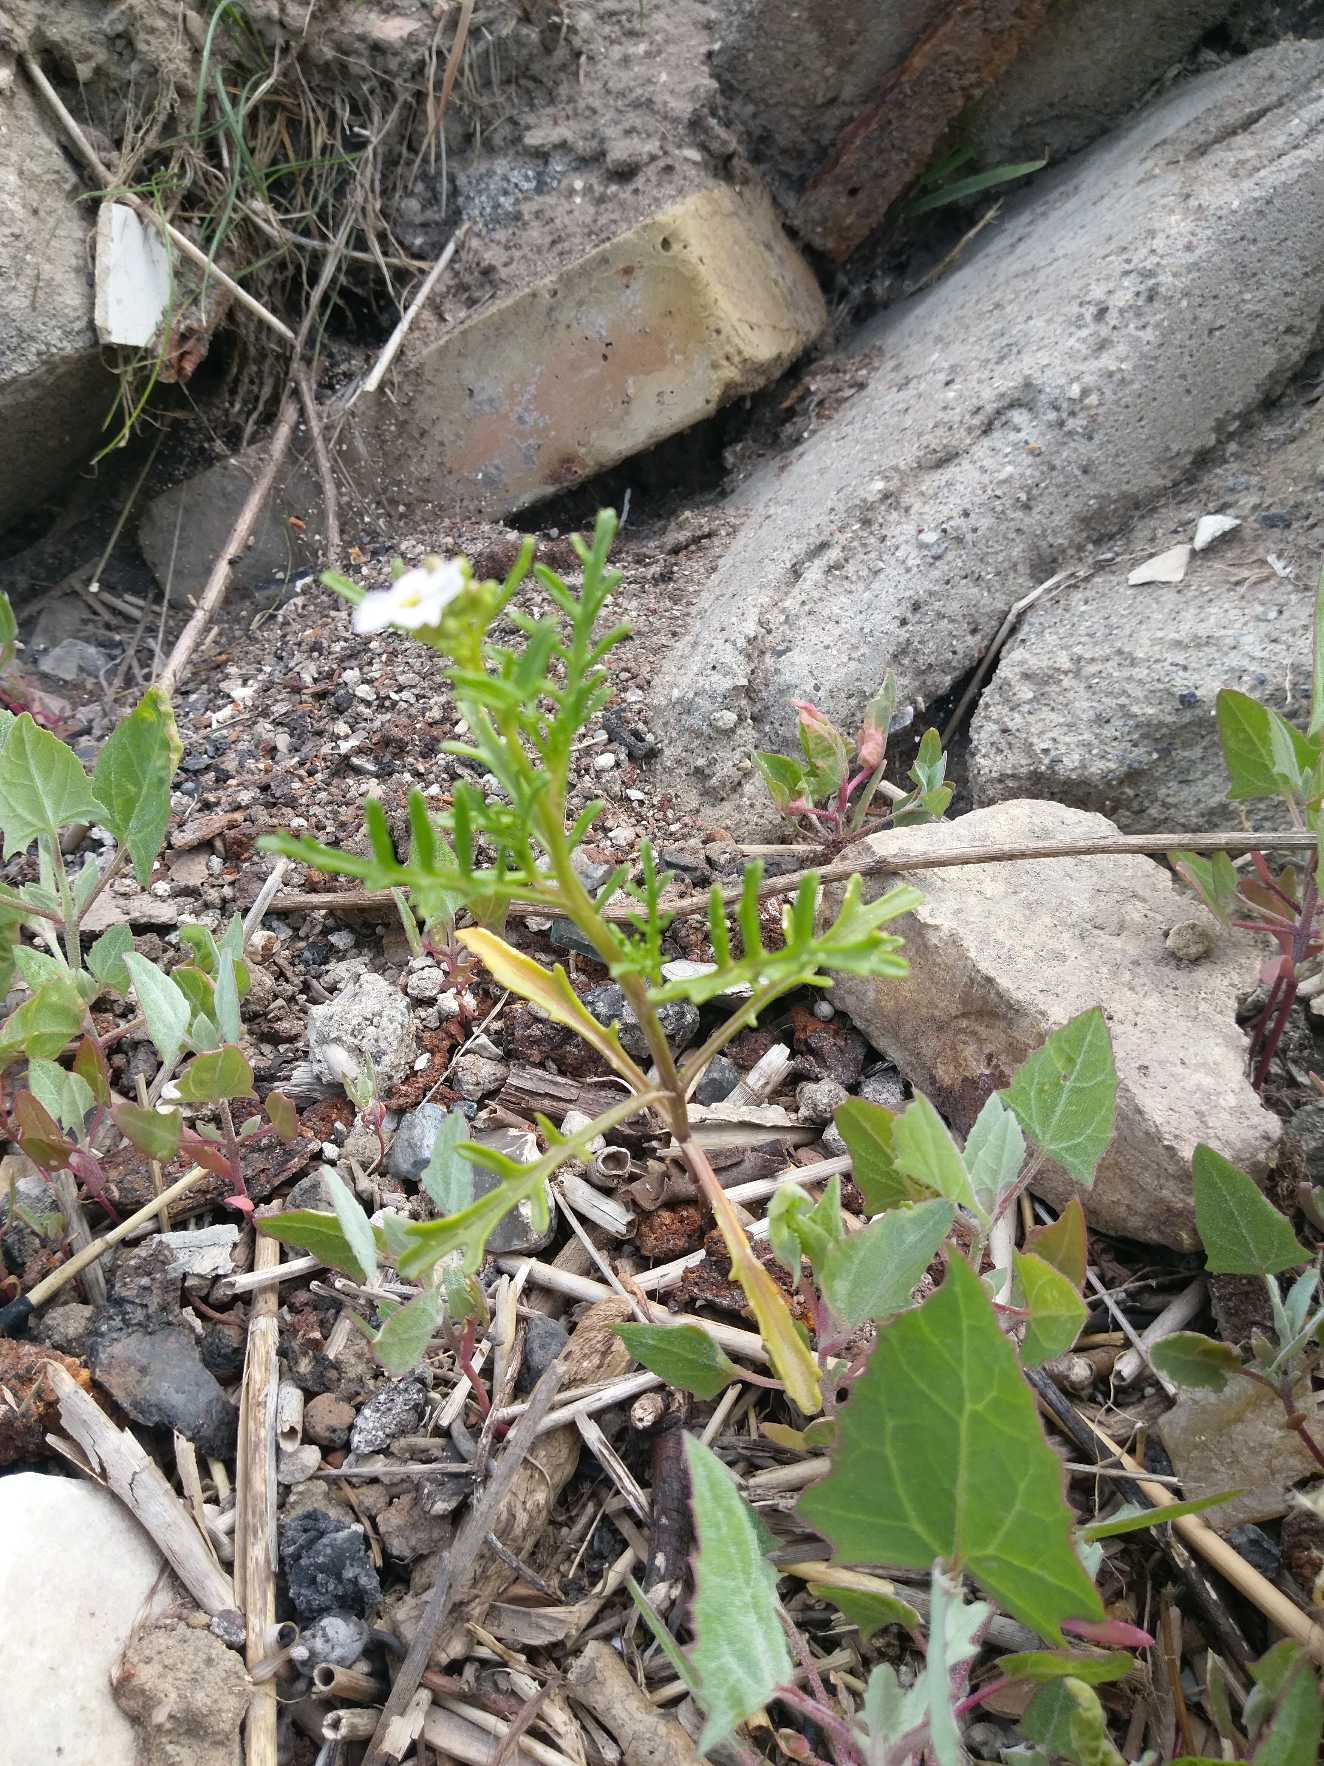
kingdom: Plantae
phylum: Tracheophyta
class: Magnoliopsida
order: Brassicales
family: Brassicaceae
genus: Cakile
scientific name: Cakile maritima
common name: Strandsennep
